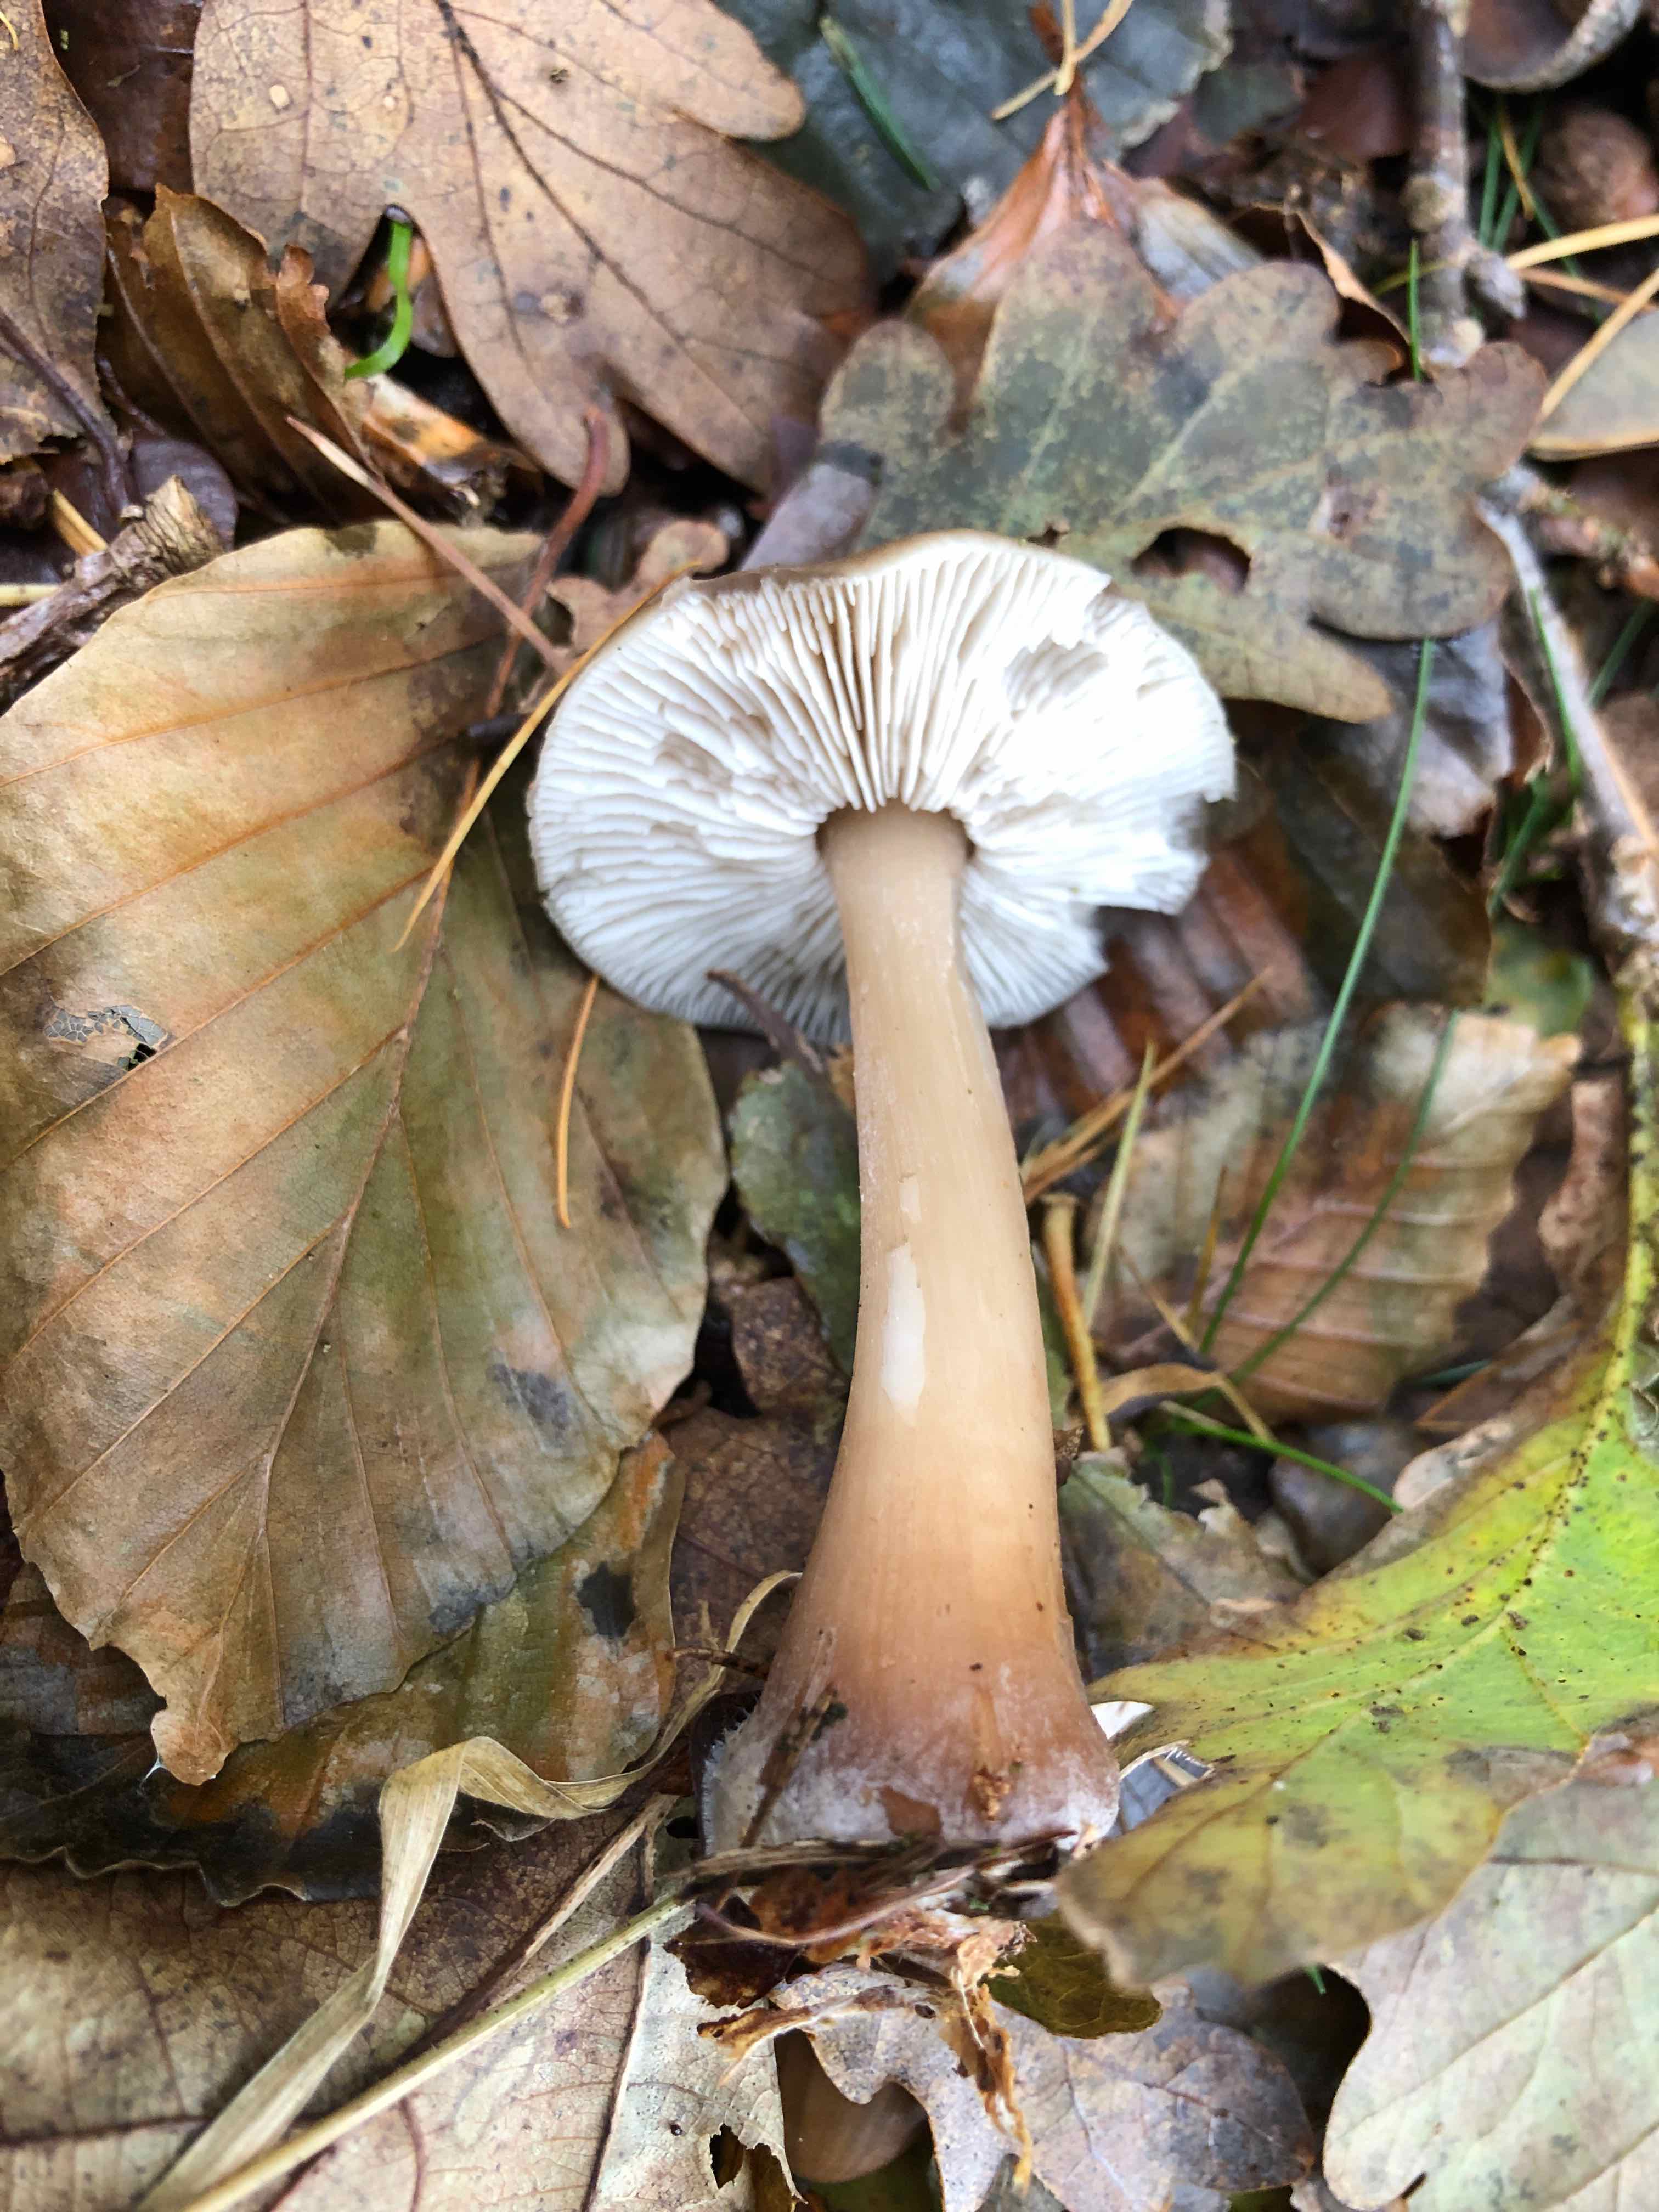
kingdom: Fungi
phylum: Basidiomycota
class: Agaricomycetes
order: Agaricales
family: Omphalotaceae
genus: Rhodocollybia
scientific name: Rhodocollybia asema
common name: horngrå fladhat
